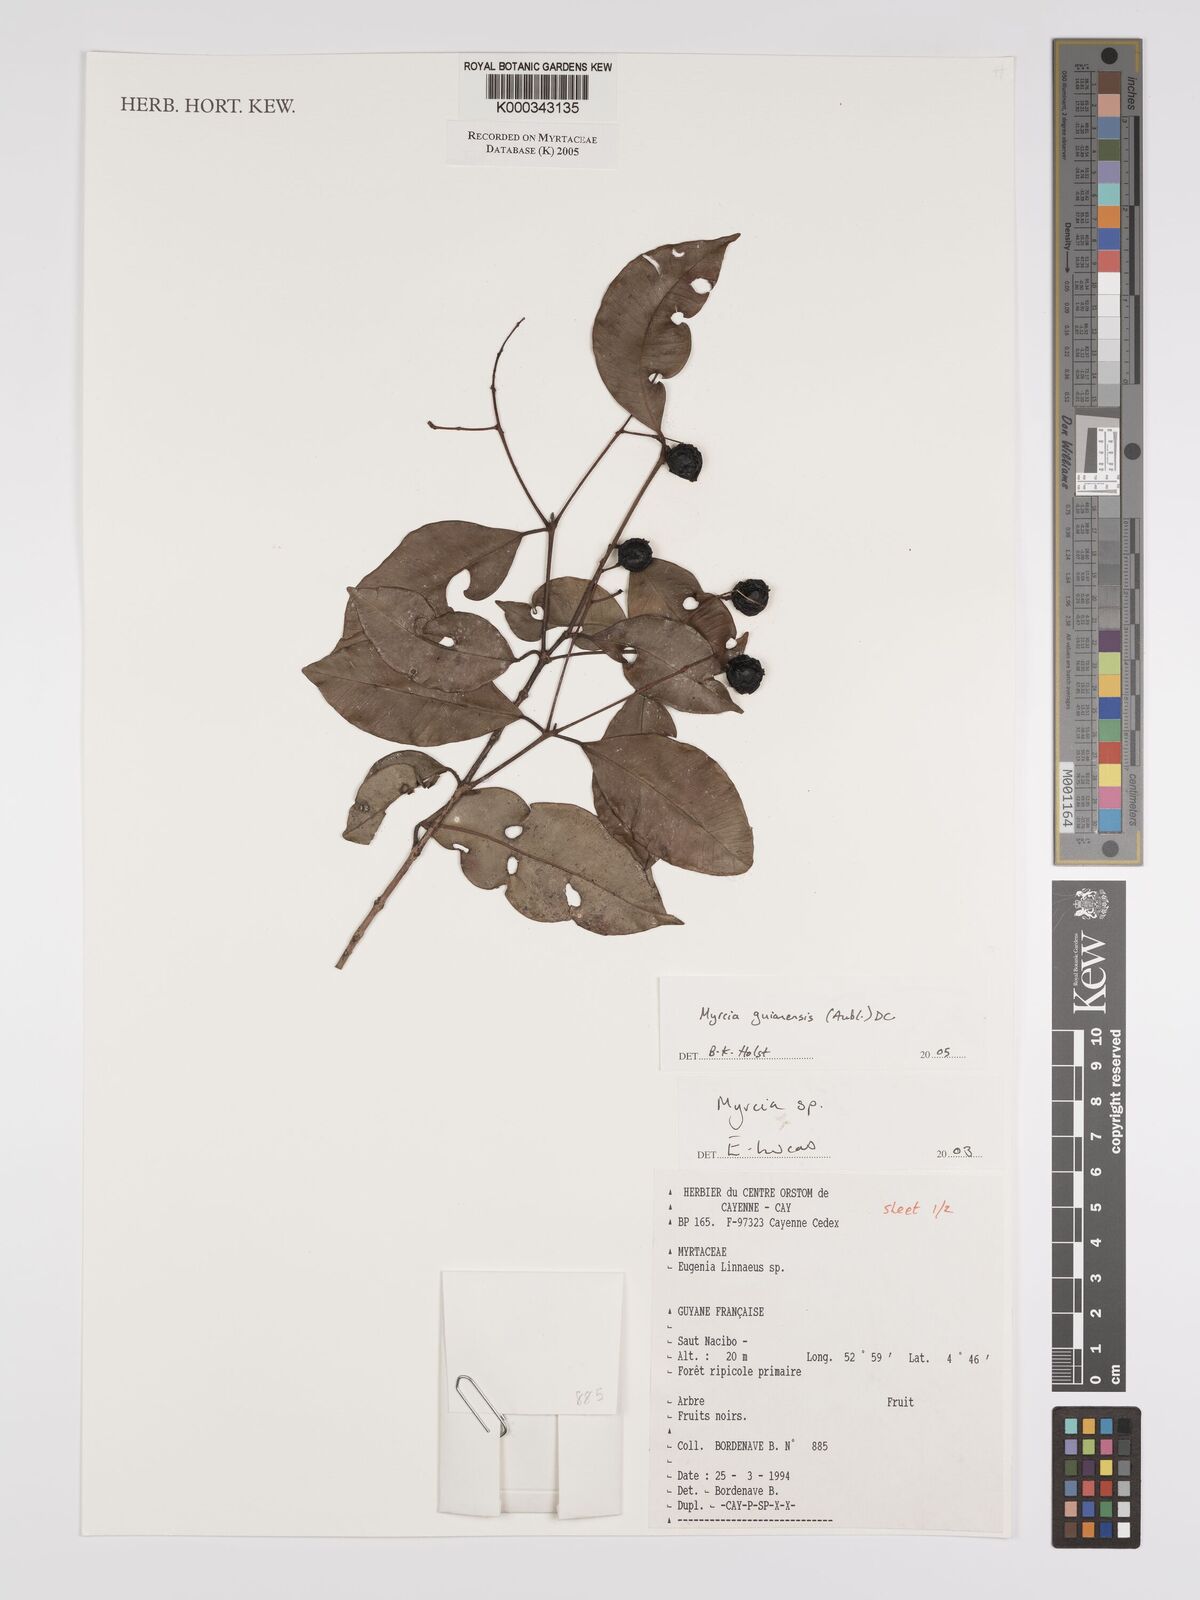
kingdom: Plantae
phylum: Tracheophyta
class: Magnoliopsida
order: Myrtales
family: Myrtaceae
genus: Myrcia
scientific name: Myrcia guianensis
